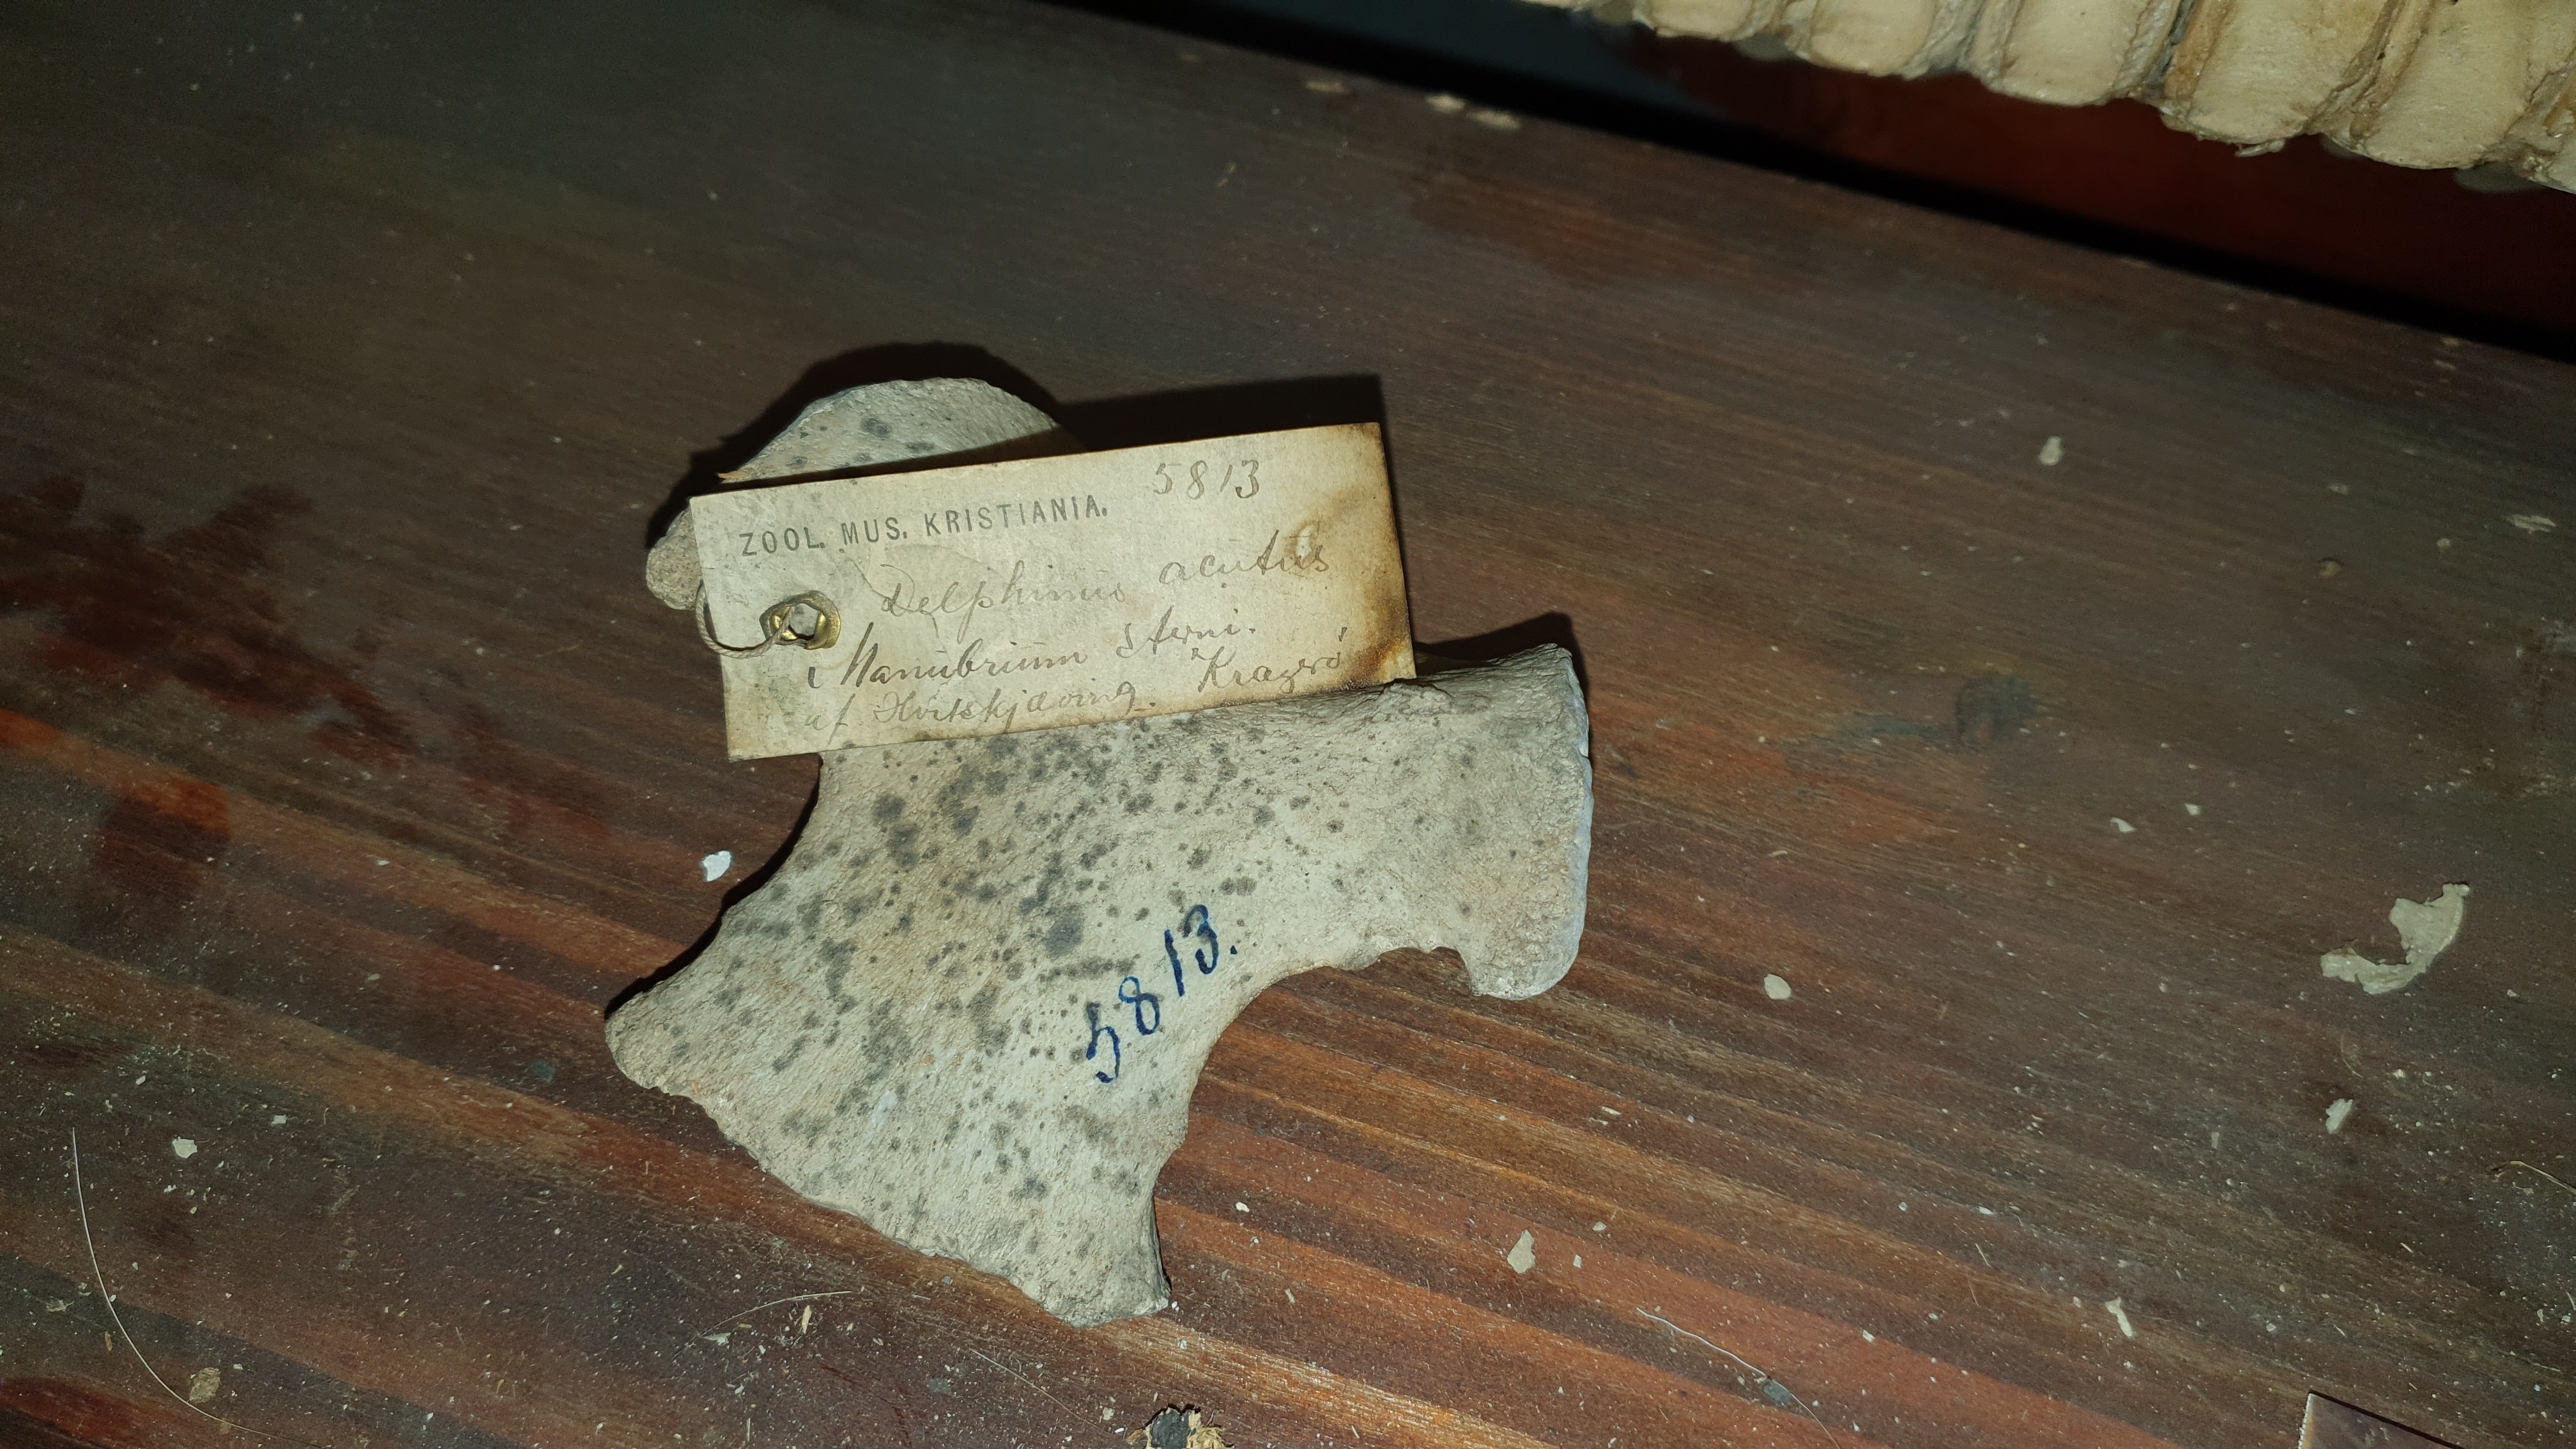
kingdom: Animalia
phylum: Chordata
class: Mammalia
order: Cetacea
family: Delphinidae
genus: Lagenorhynchus
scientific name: Lagenorhynchus acutus
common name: Atlantic white-sided dolphin
